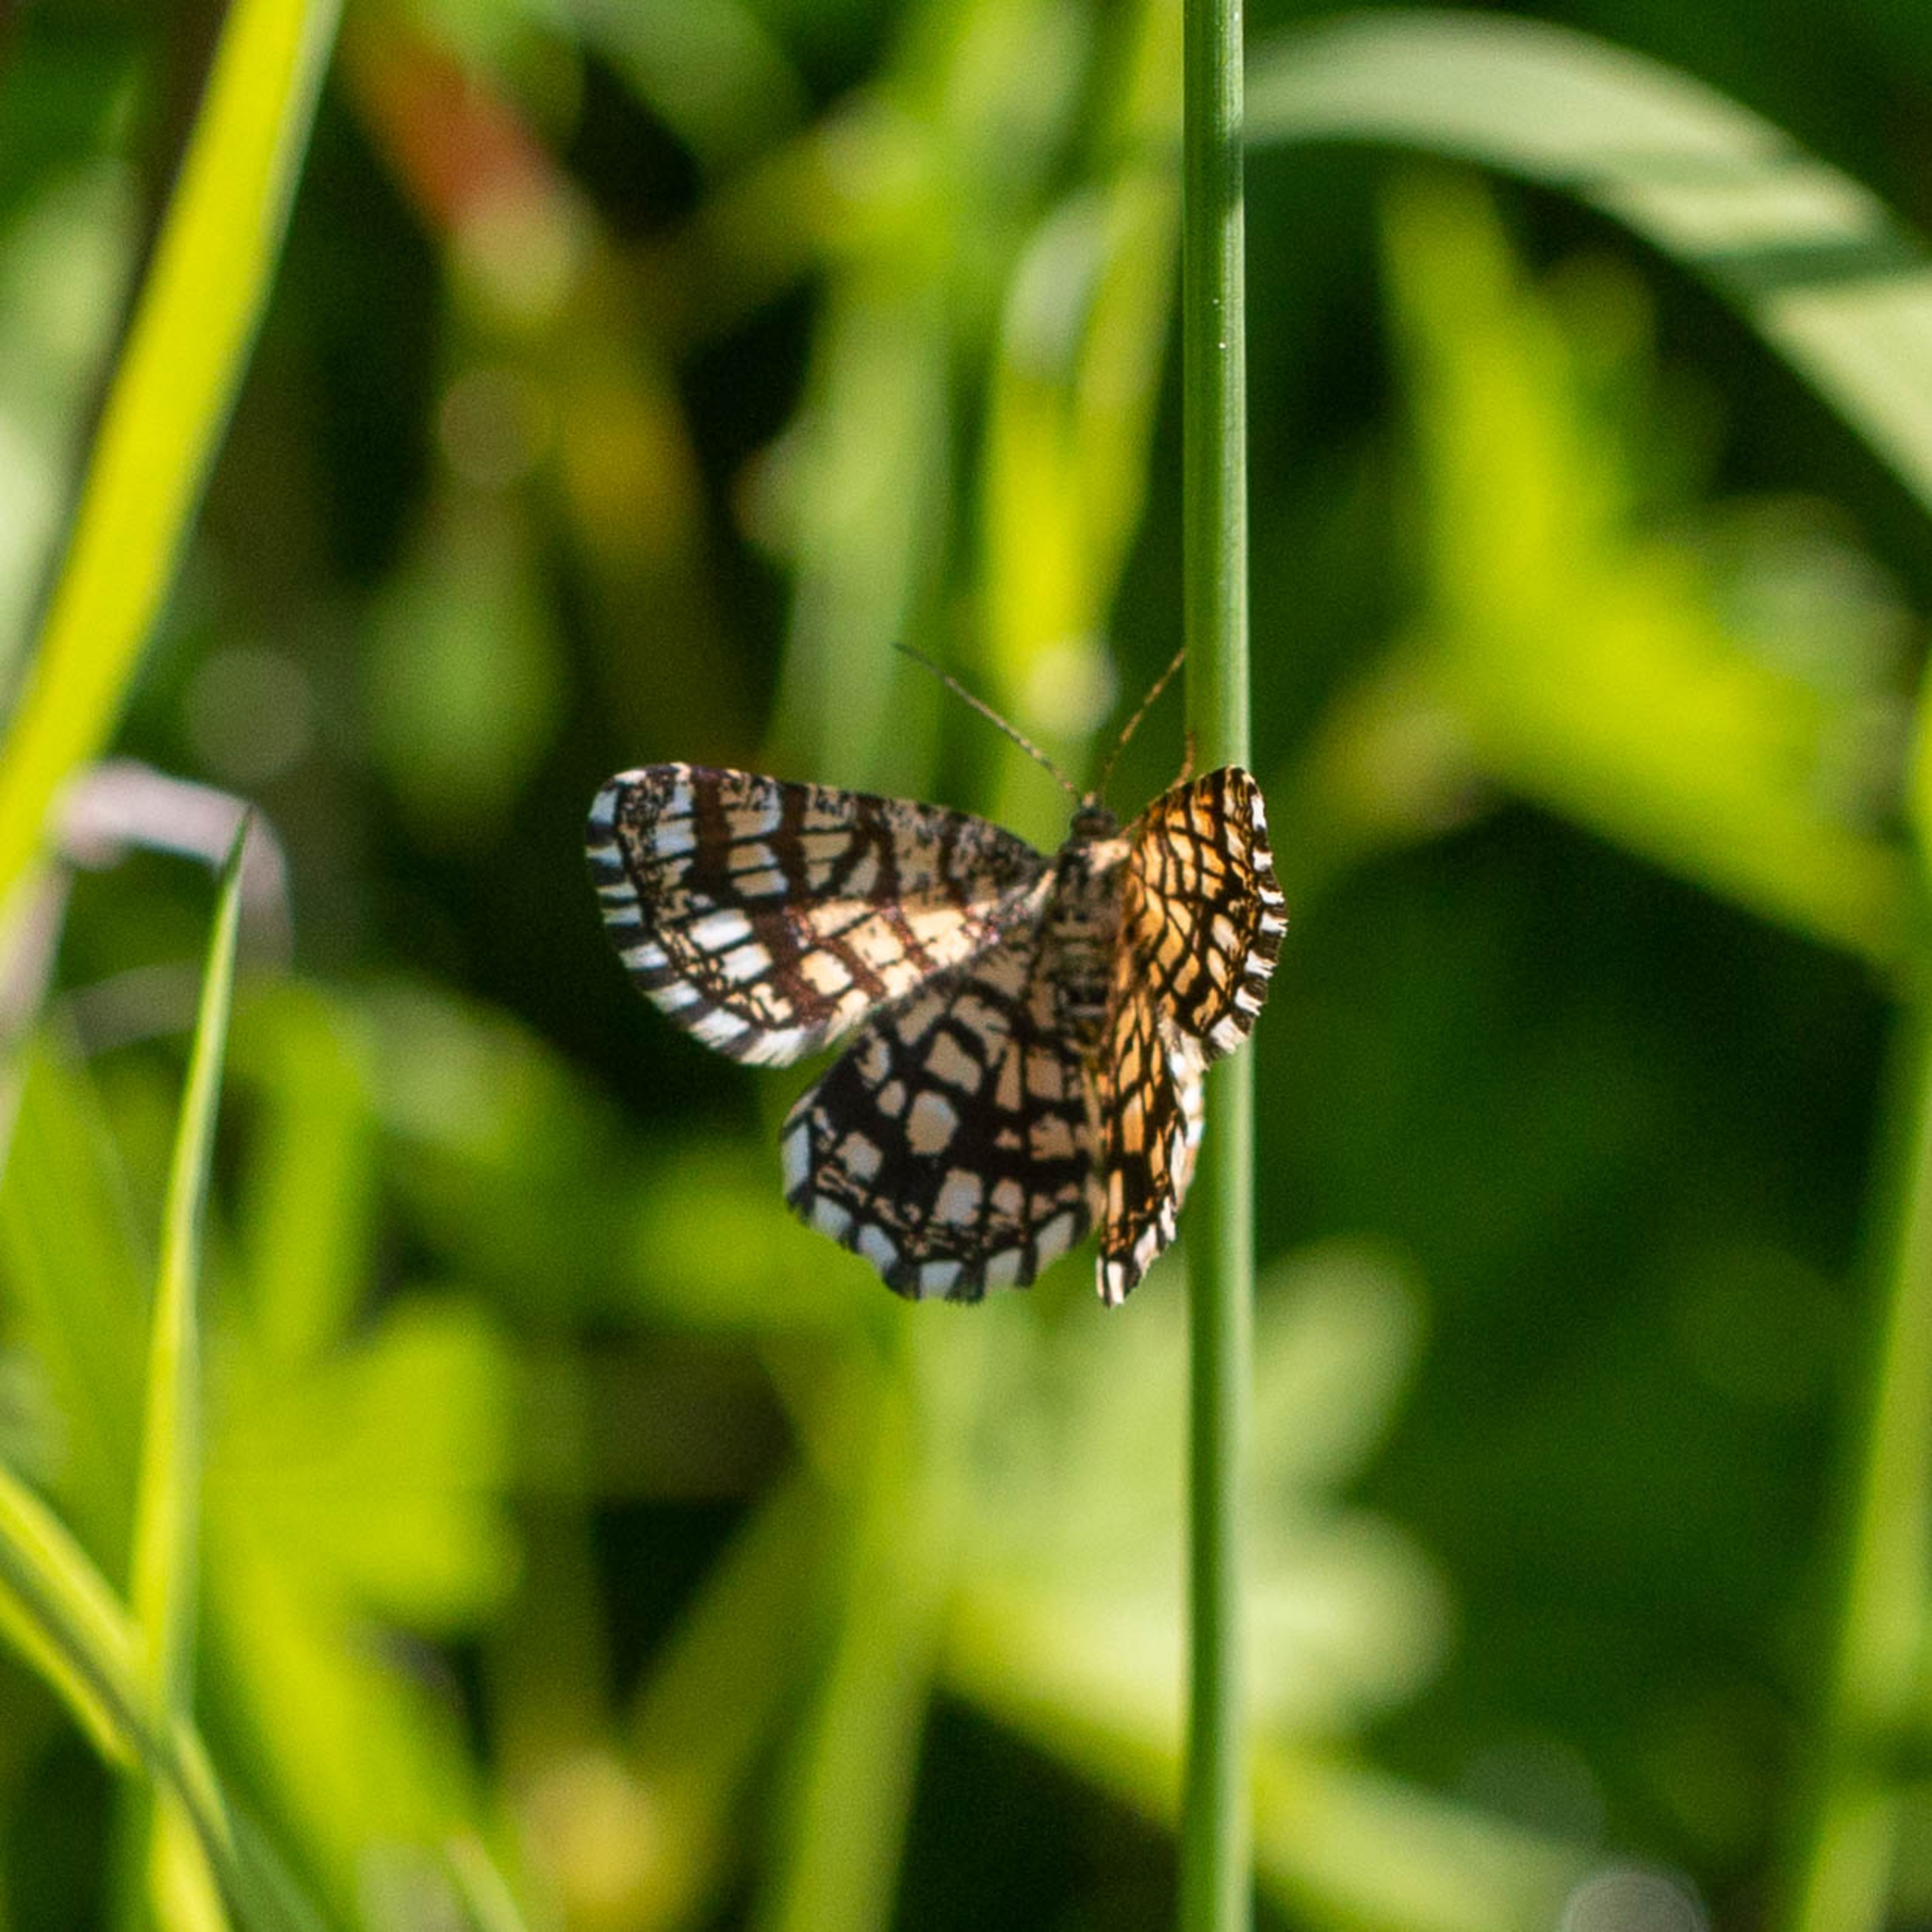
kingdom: Animalia
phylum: Arthropoda
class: Insecta
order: Lepidoptera
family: Geometridae
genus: Chiasmia
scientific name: Chiasmia clathrata
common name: Kløvermåler
